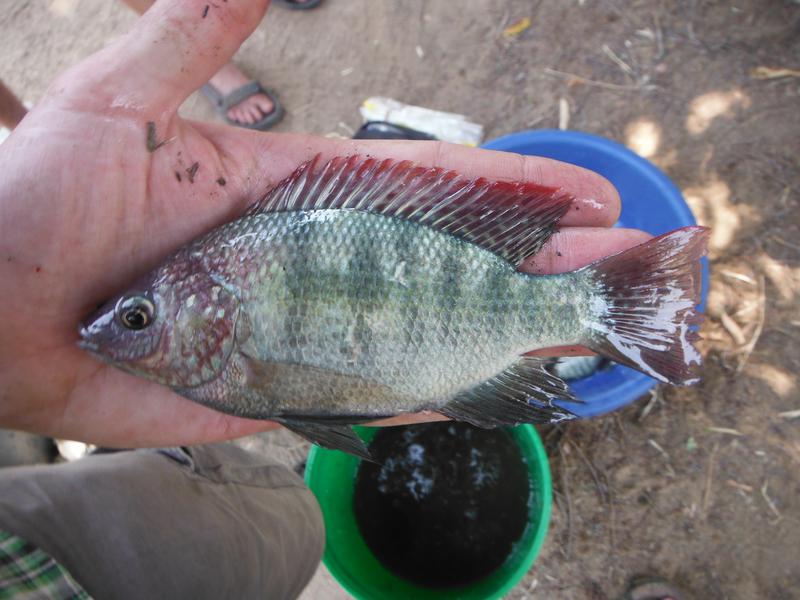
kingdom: Animalia
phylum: Chordata
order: Perciformes
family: Cichlidae
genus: Oreochromis
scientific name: Oreochromis
